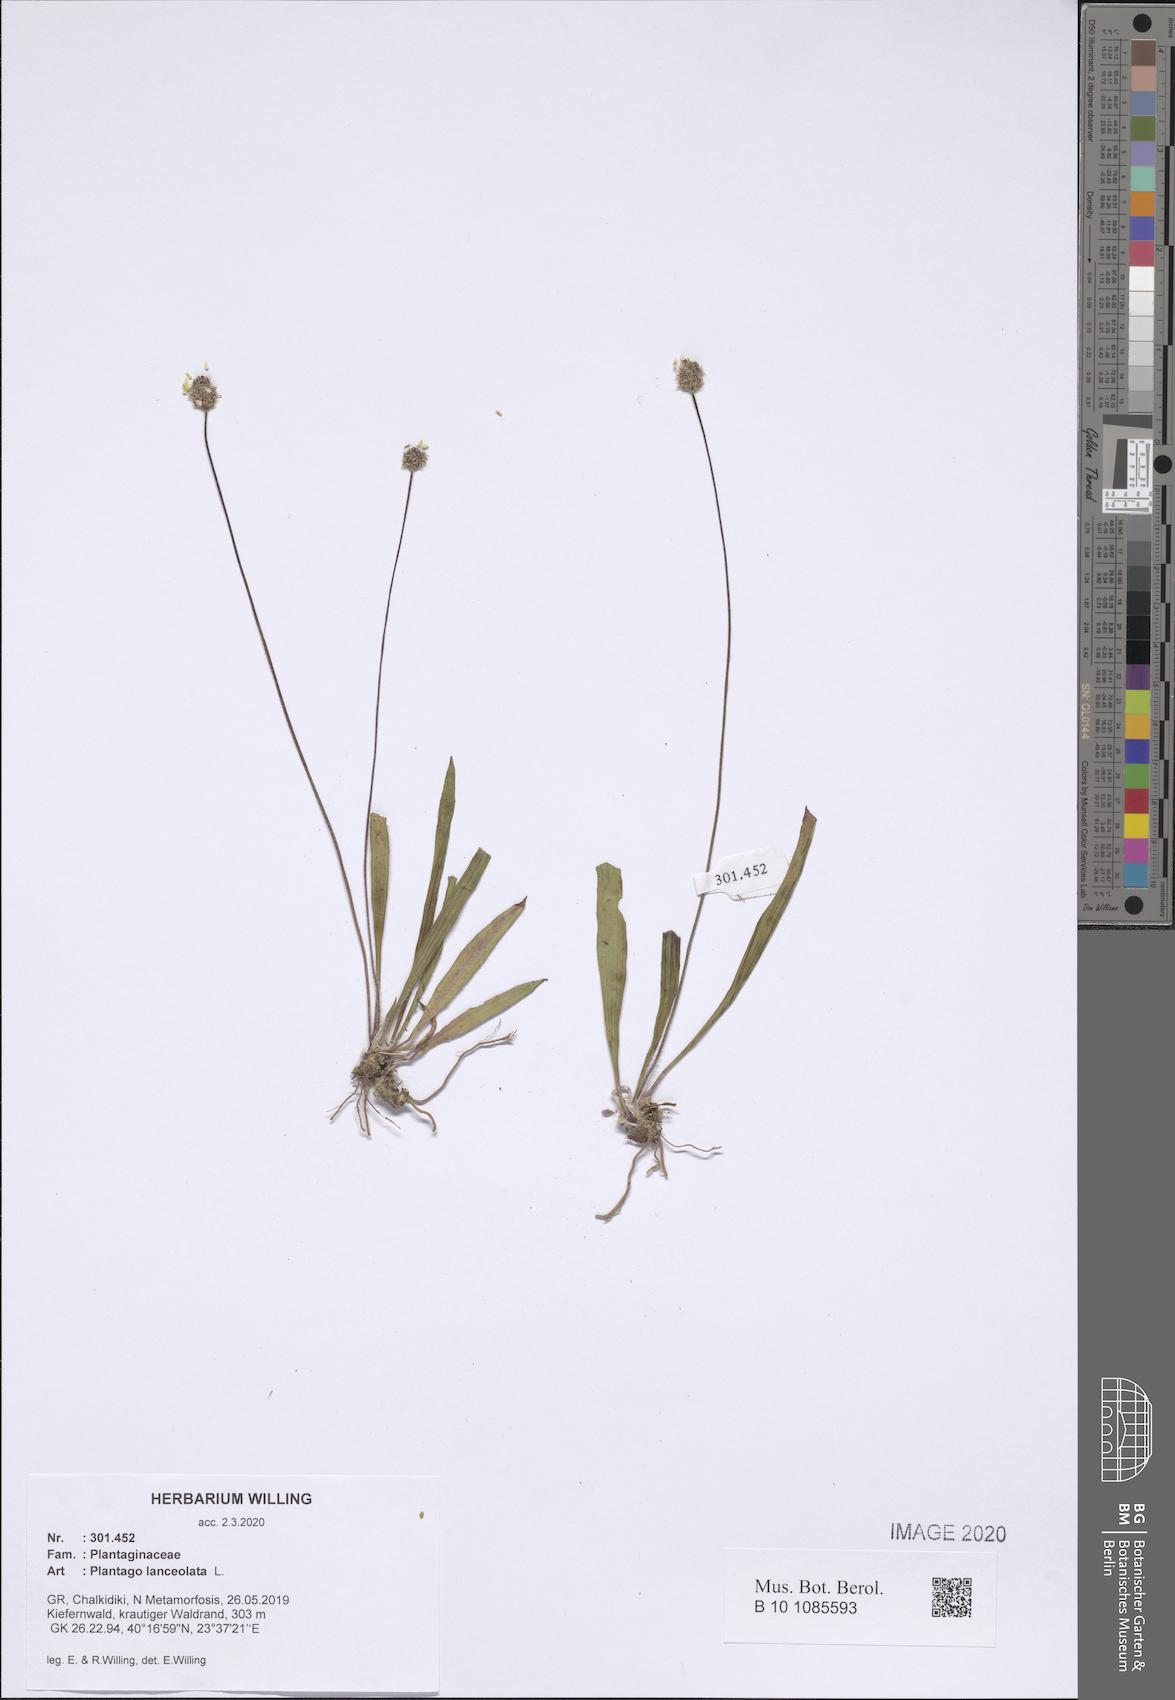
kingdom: Plantae
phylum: Tracheophyta
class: Magnoliopsida
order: Lamiales
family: Plantaginaceae
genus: Plantago
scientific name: Plantago lanceolata
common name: Ribwort plantain
